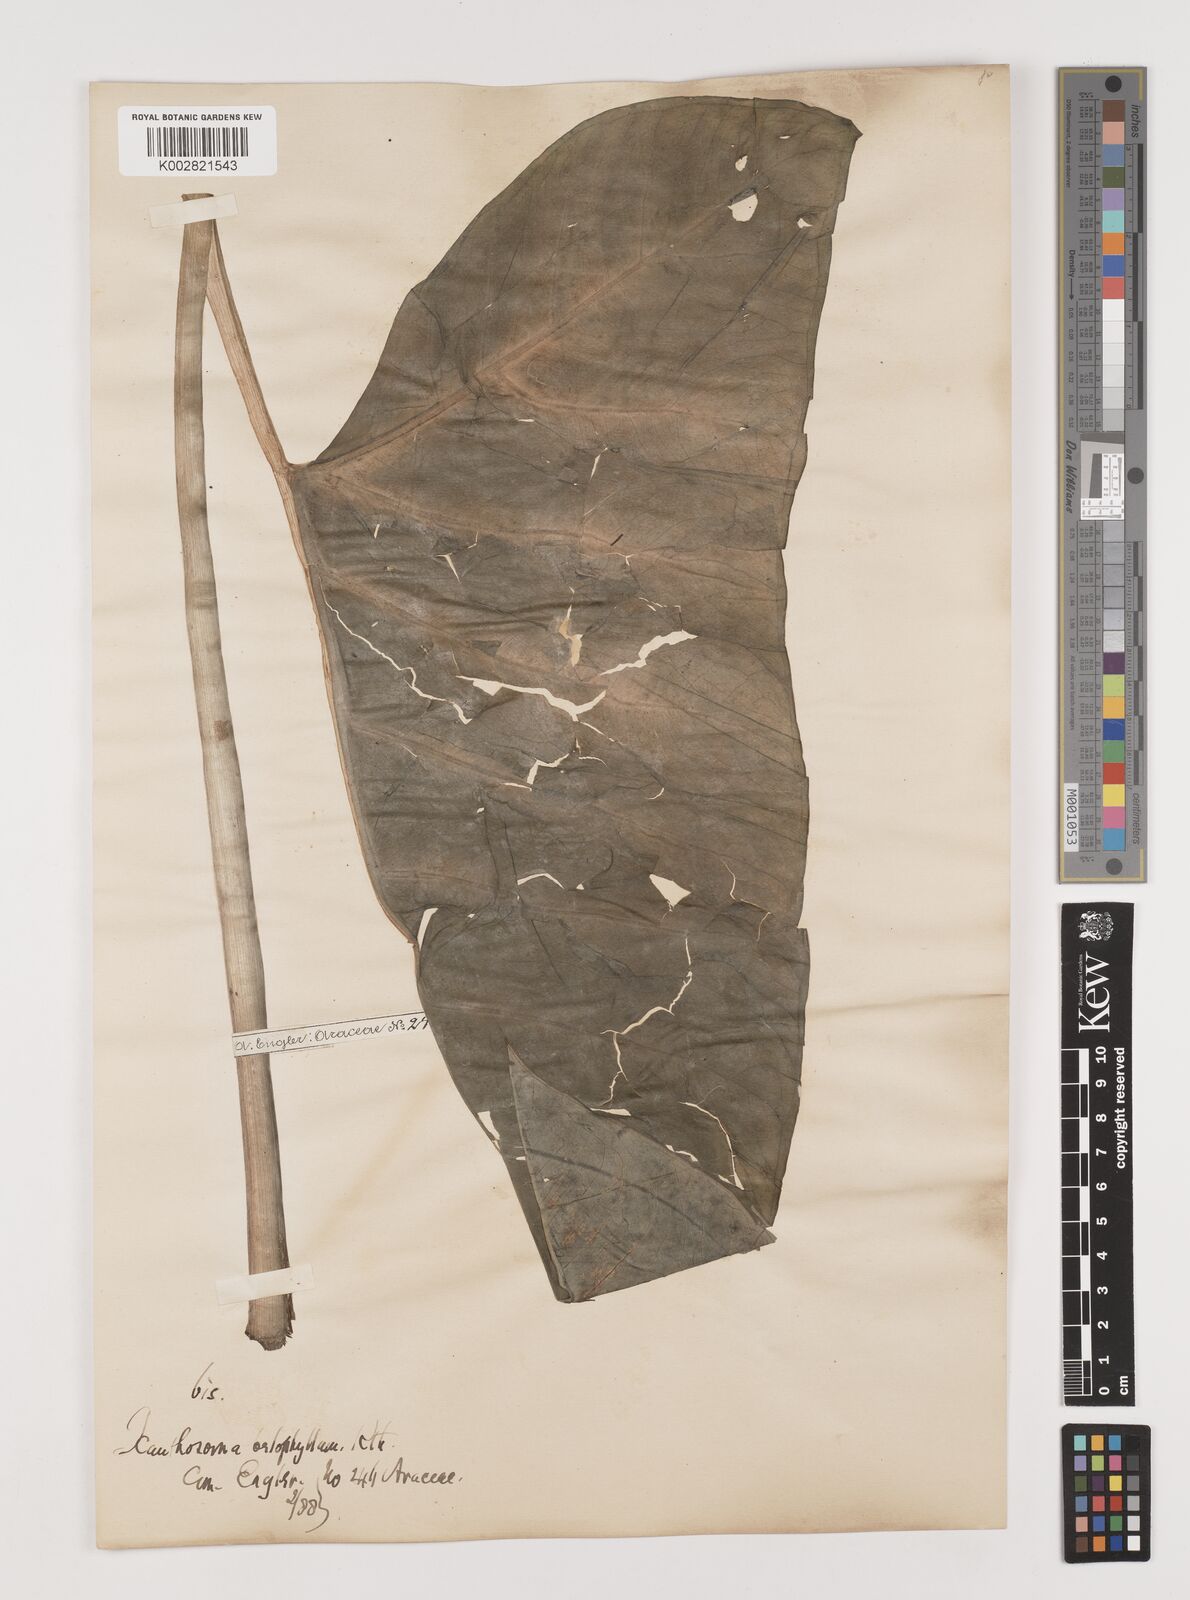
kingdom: Plantae
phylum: Tracheophyta
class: Liliopsida
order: Alismatales
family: Araceae
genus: Xanthosoma
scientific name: Xanthosoma belophyllum
